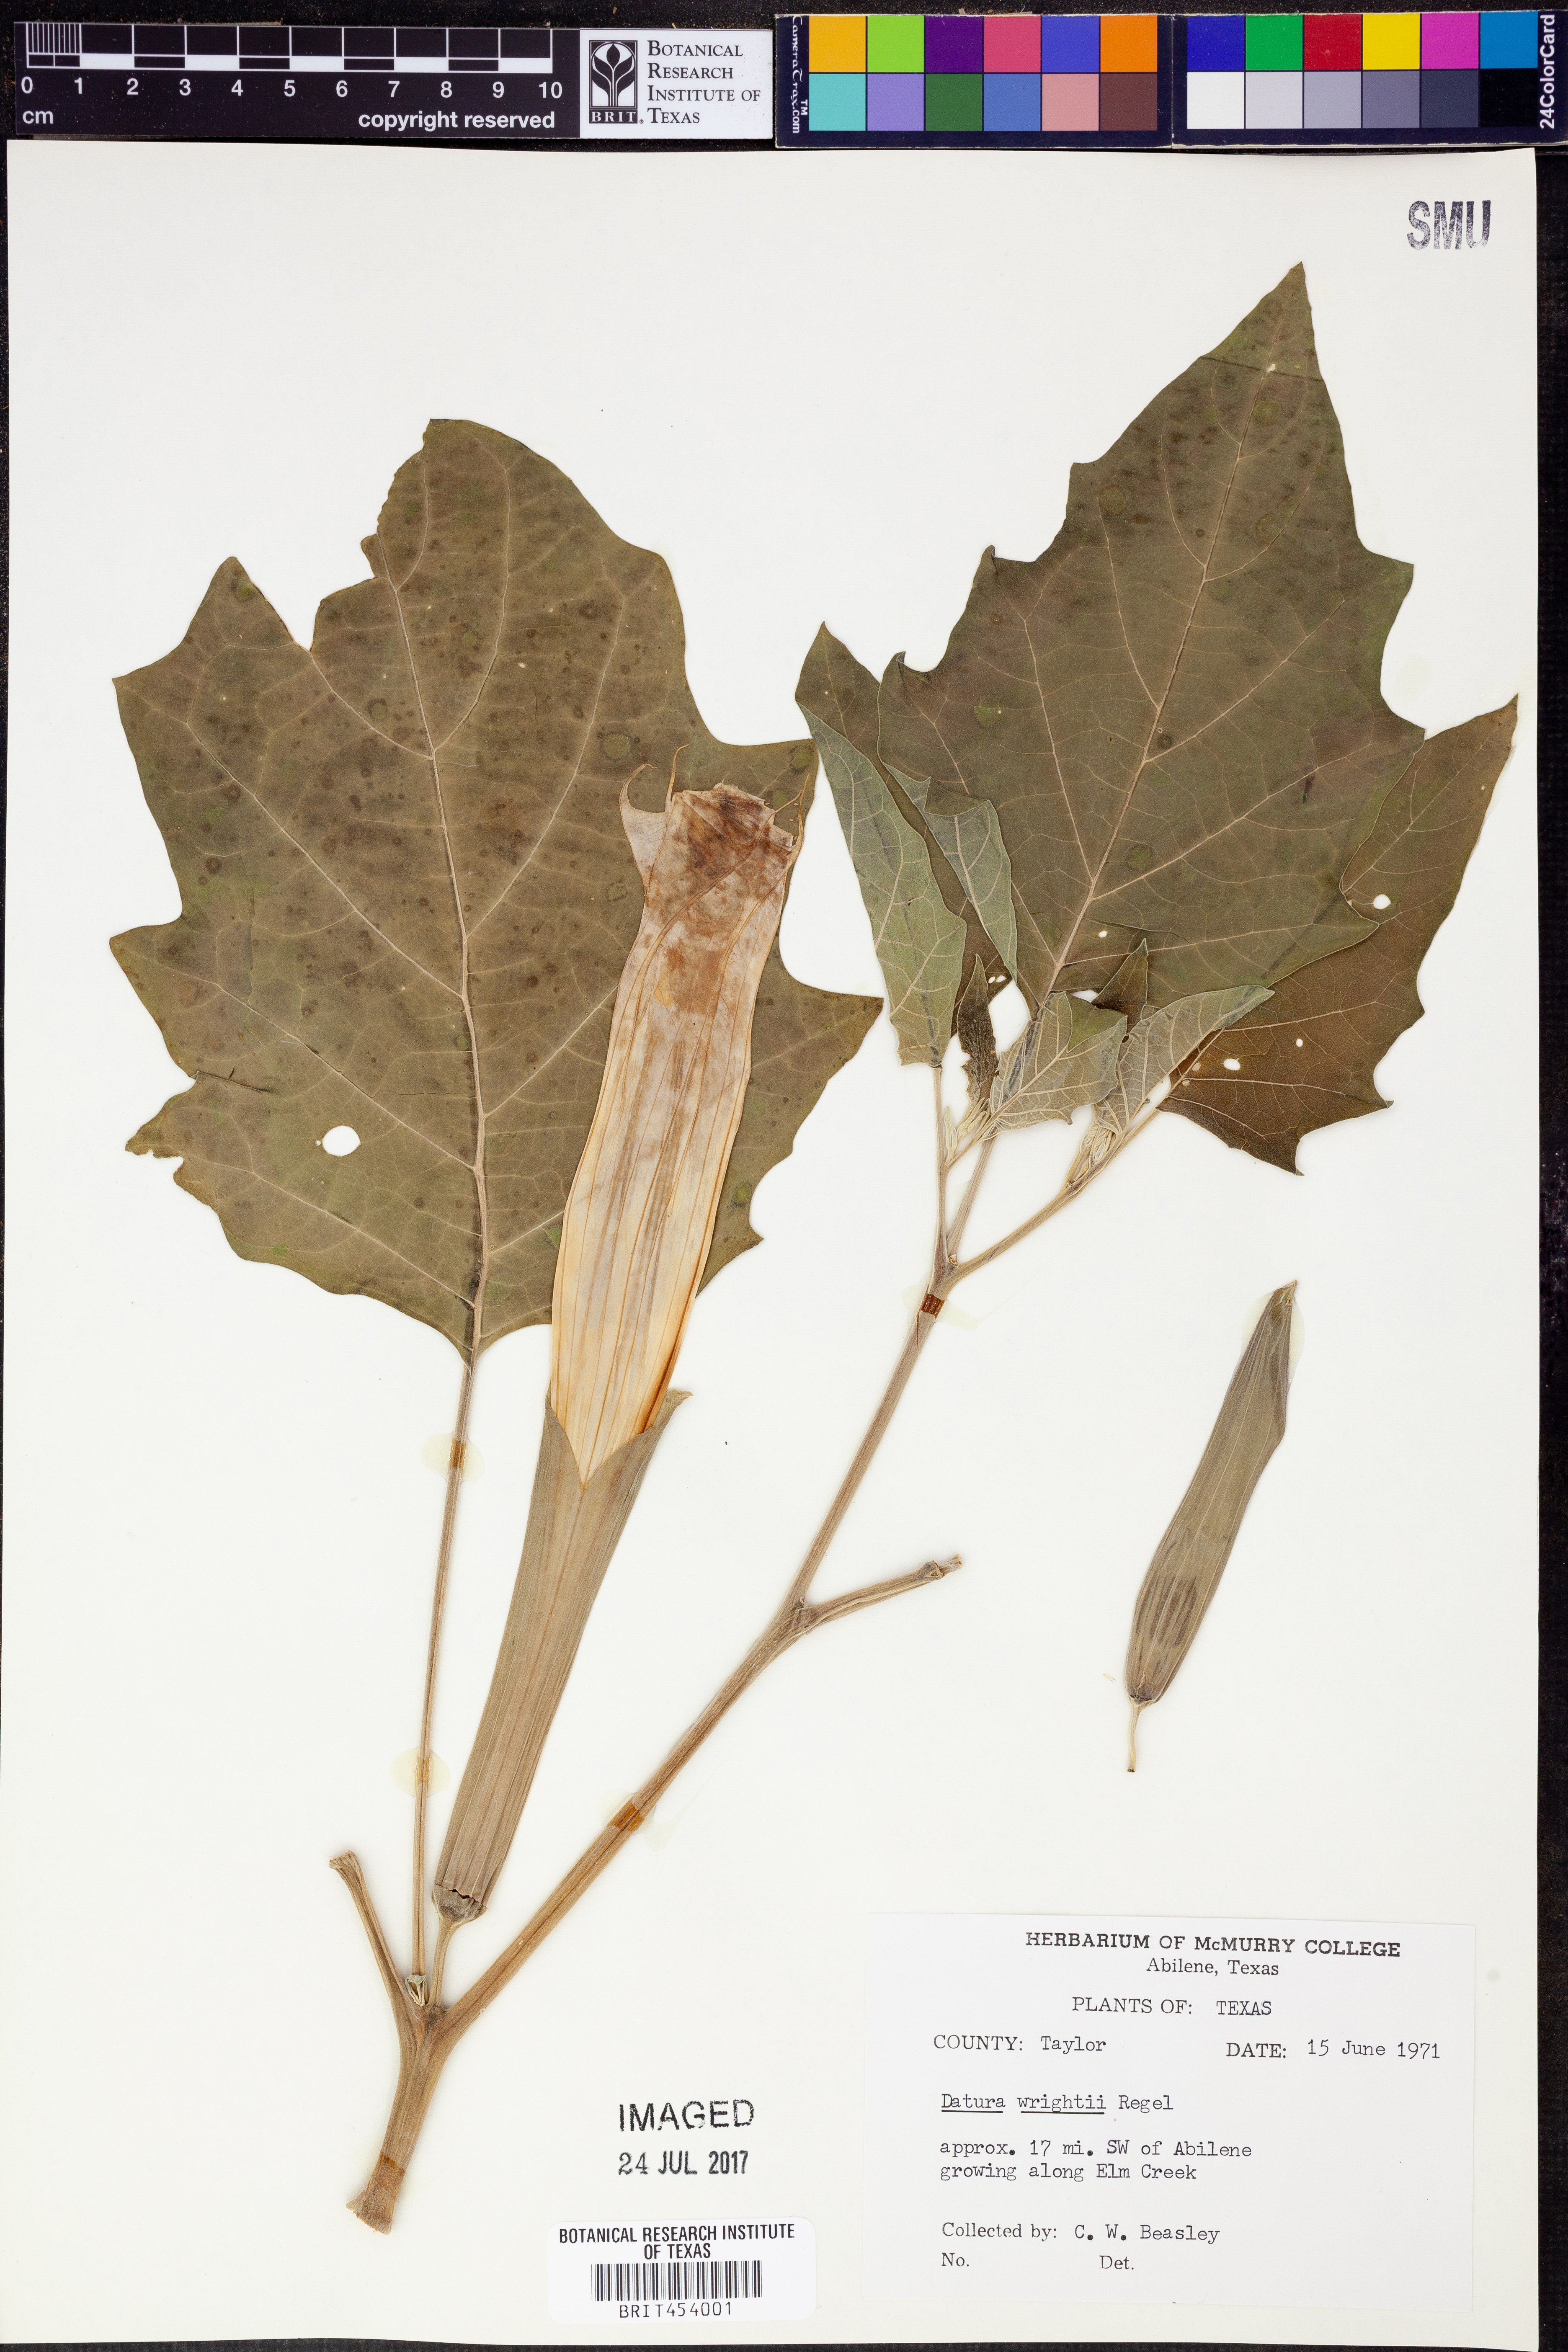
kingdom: Plantae
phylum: Tracheophyta
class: Magnoliopsida
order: Solanales
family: Solanaceae
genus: Datura
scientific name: Datura wrightii
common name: Sacred thorn-apple
